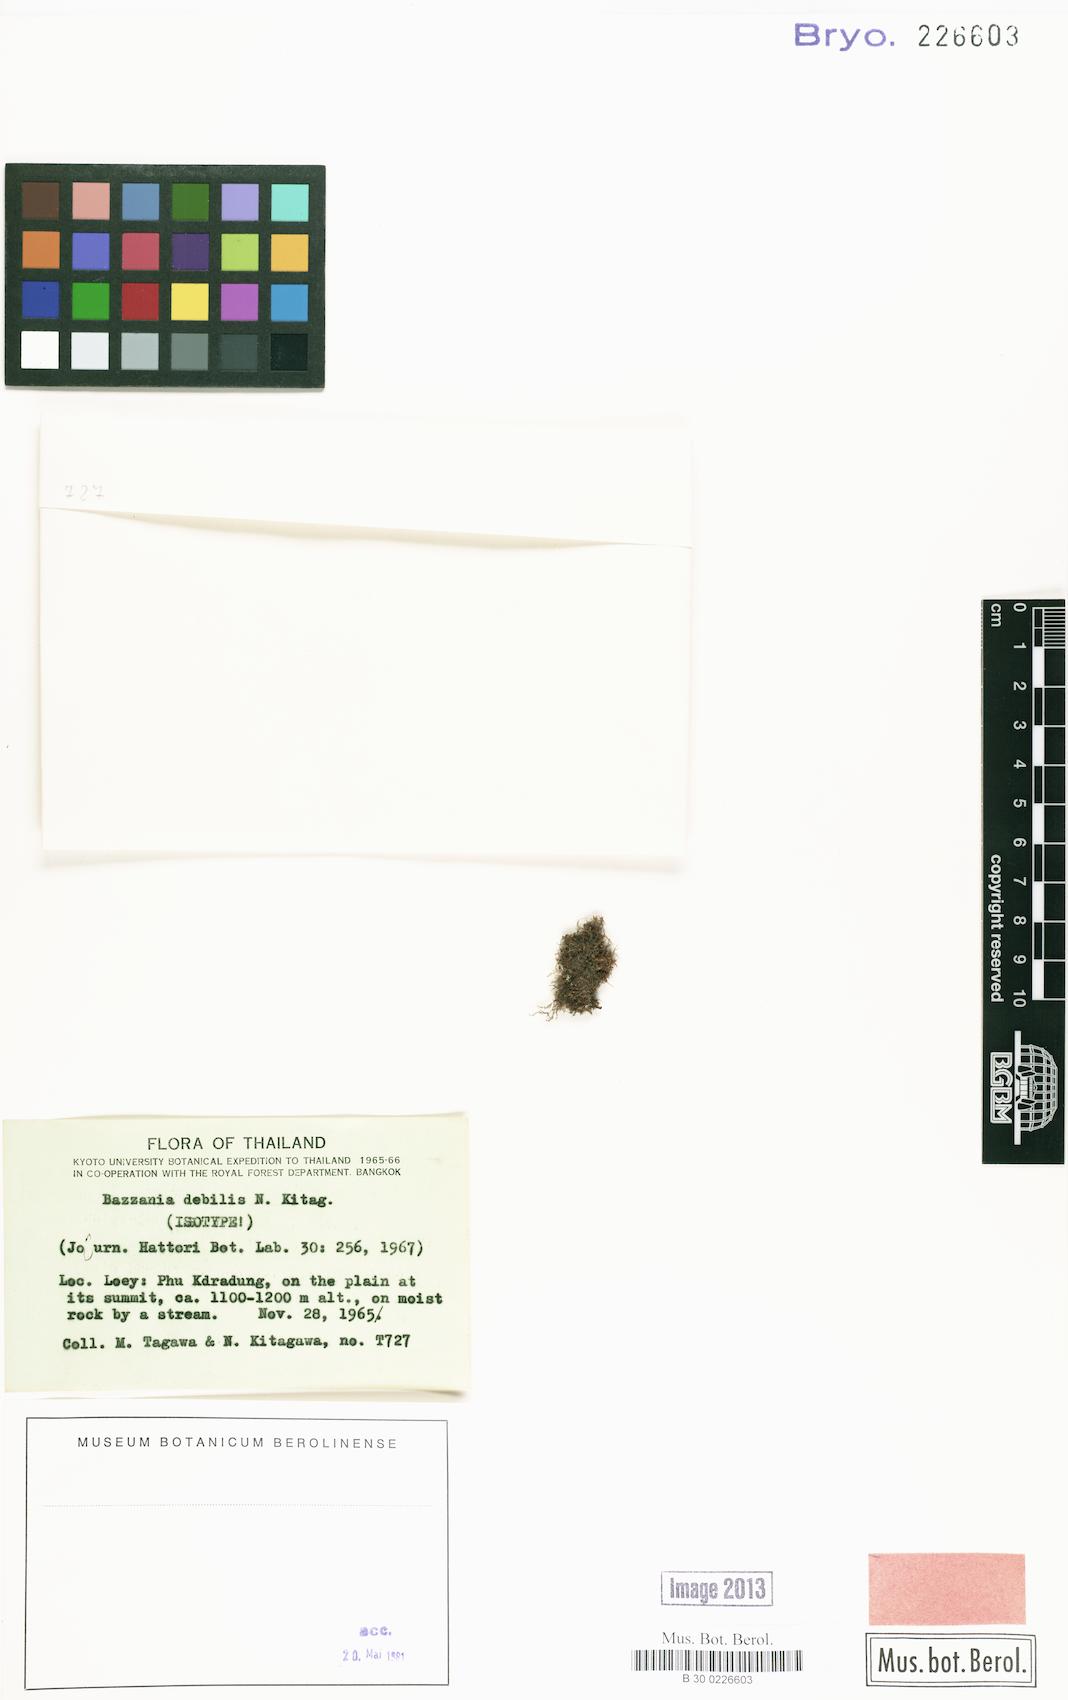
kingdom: Plantae
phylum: Marchantiophyta
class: Jungermanniopsida
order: Jungermanniales
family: Lepidoziaceae
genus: Bazzania
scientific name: Bazzania debilis
